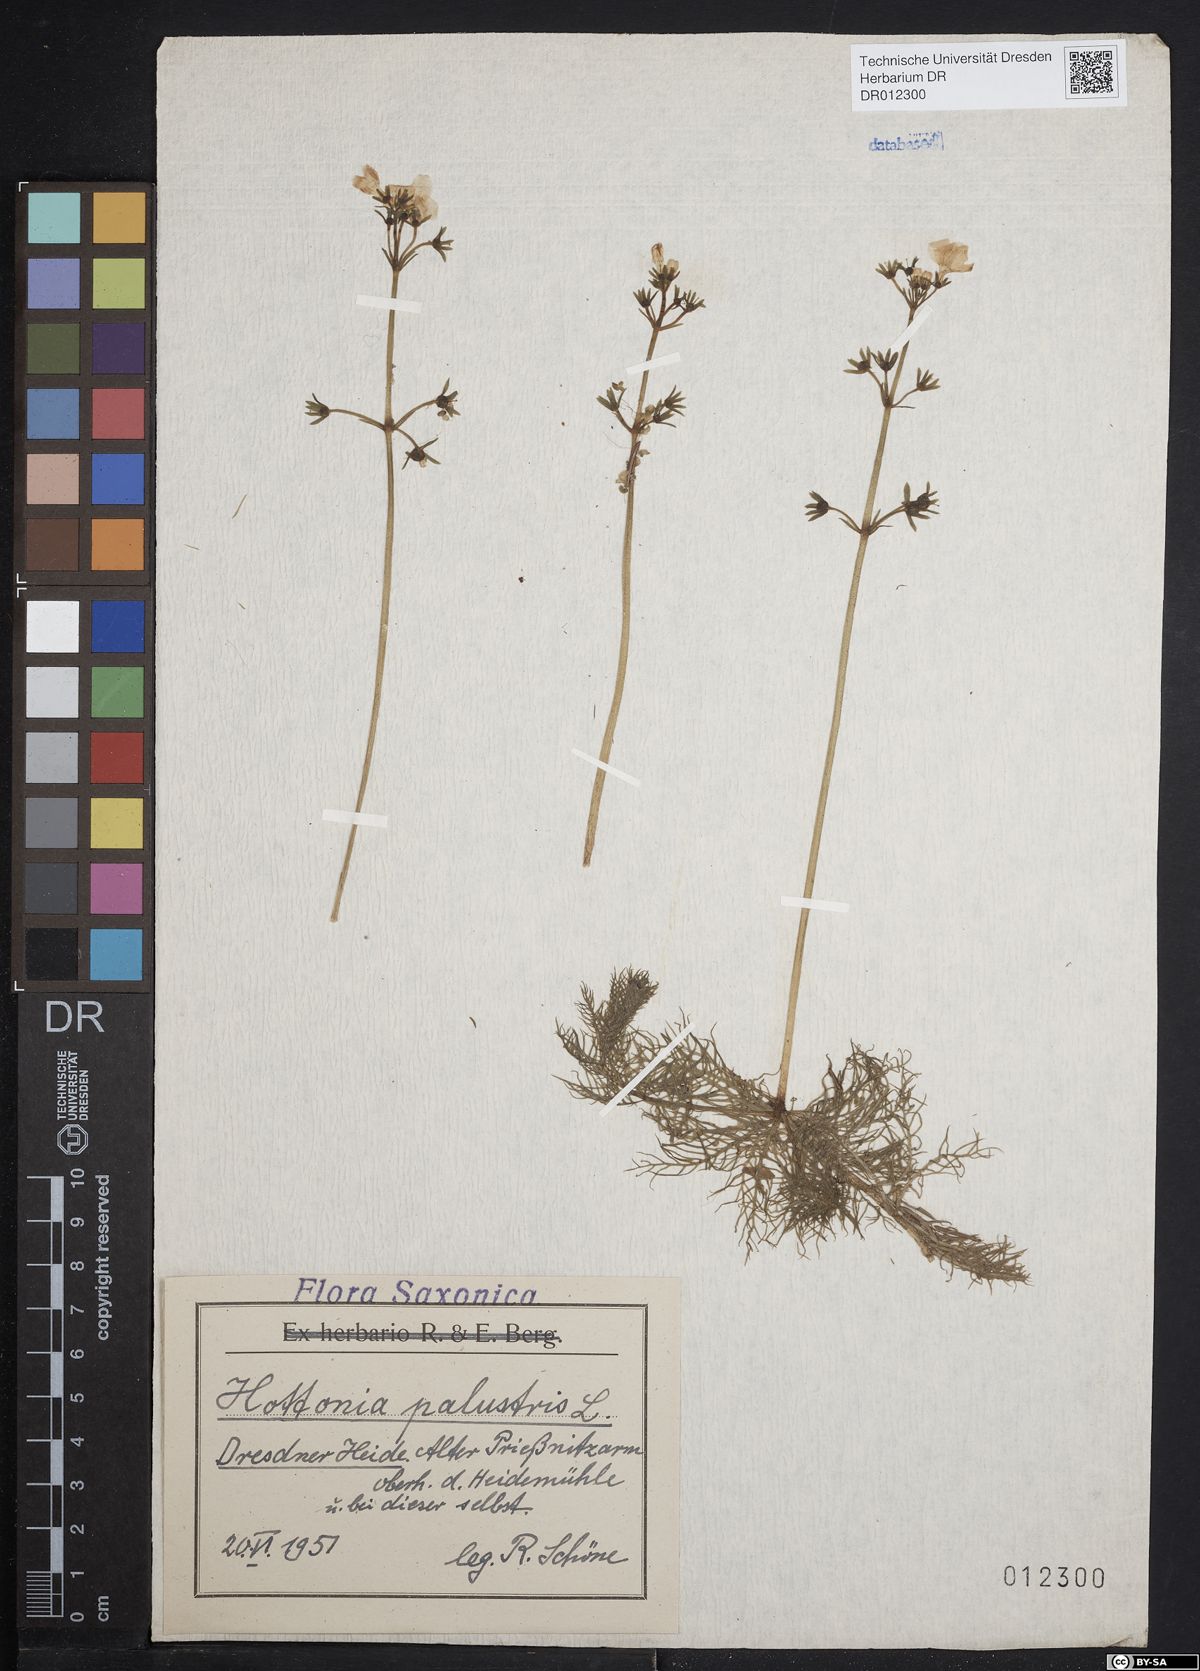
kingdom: Plantae
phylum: Tracheophyta
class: Magnoliopsida
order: Ericales
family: Primulaceae
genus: Hottonia
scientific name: Hottonia palustris
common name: Water-violet
